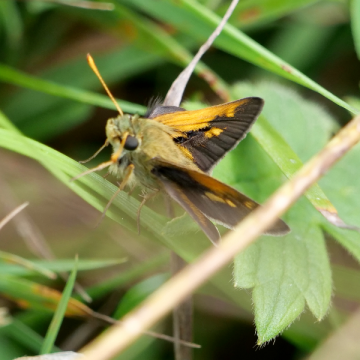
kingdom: Animalia
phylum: Arthropoda
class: Insecta
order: Lepidoptera
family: Hesperiidae
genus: Polites
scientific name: Polites
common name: Crossline Skipper
